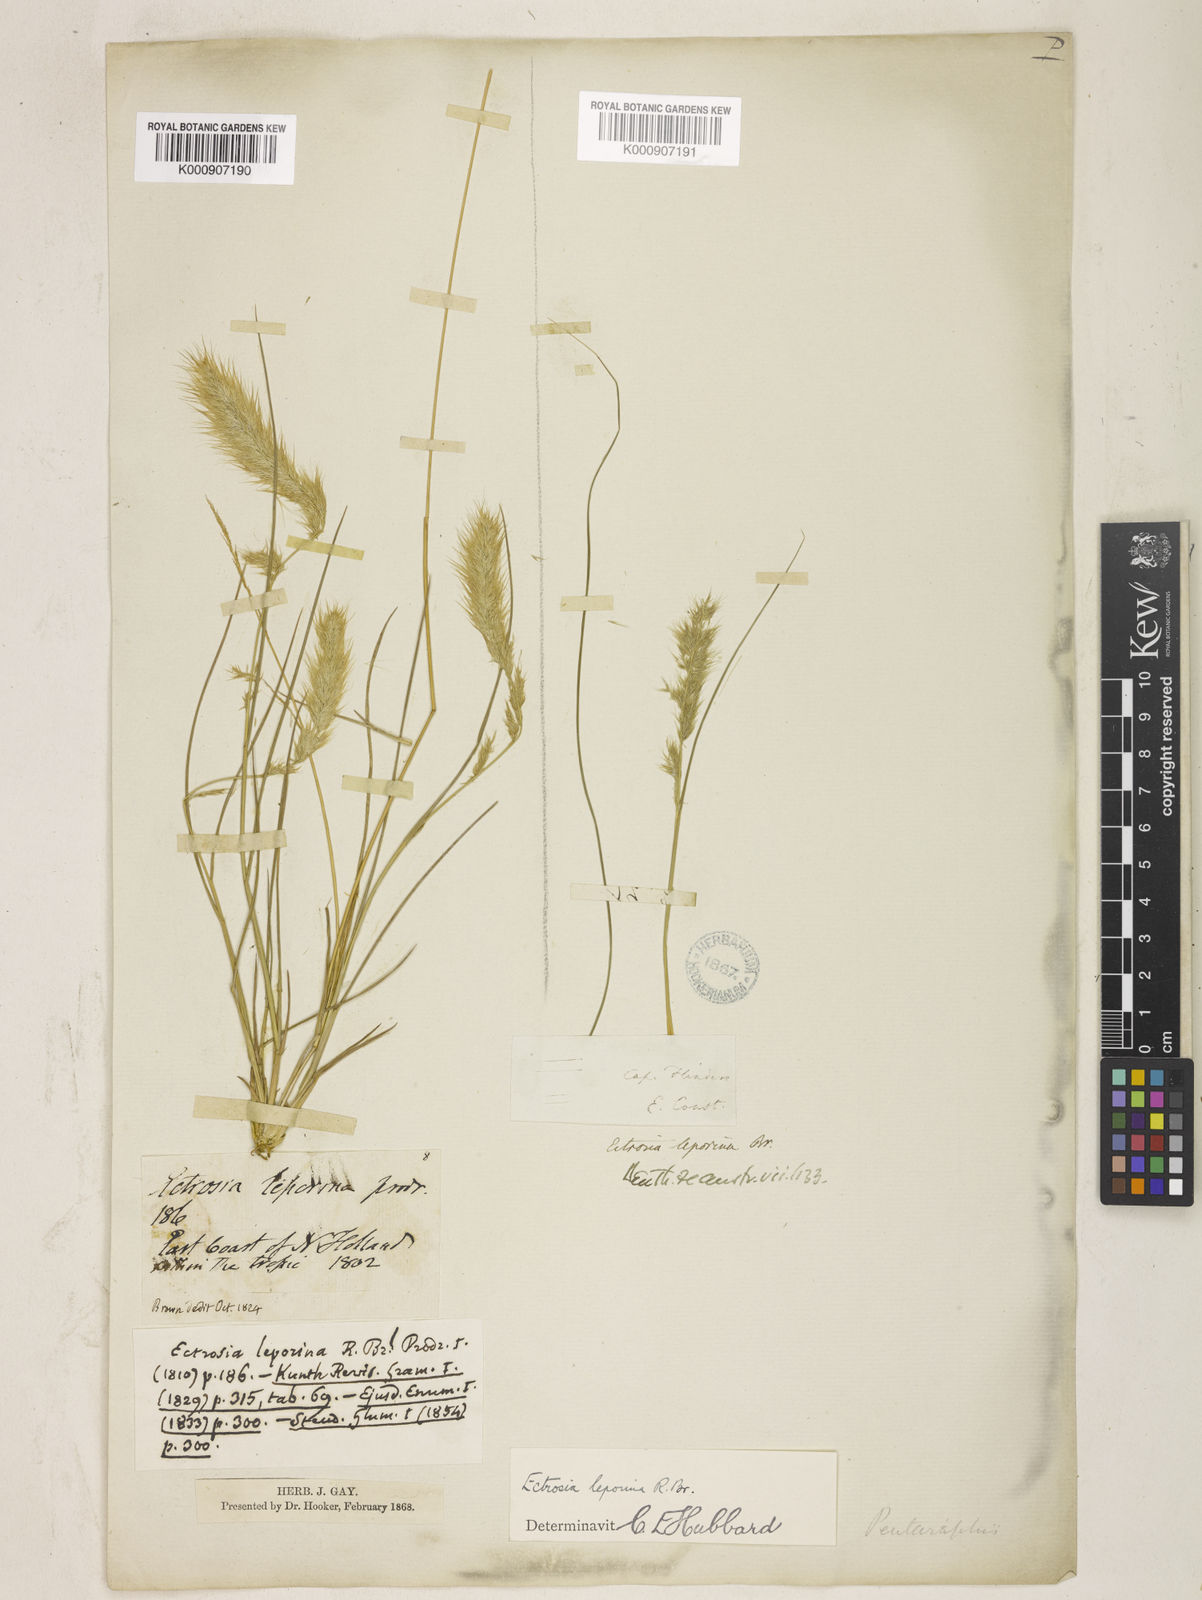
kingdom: Plantae
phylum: Tracheophyta
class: Liliopsida
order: Poales
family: Poaceae
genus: Eragrostis
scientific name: Eragrostis leporina
